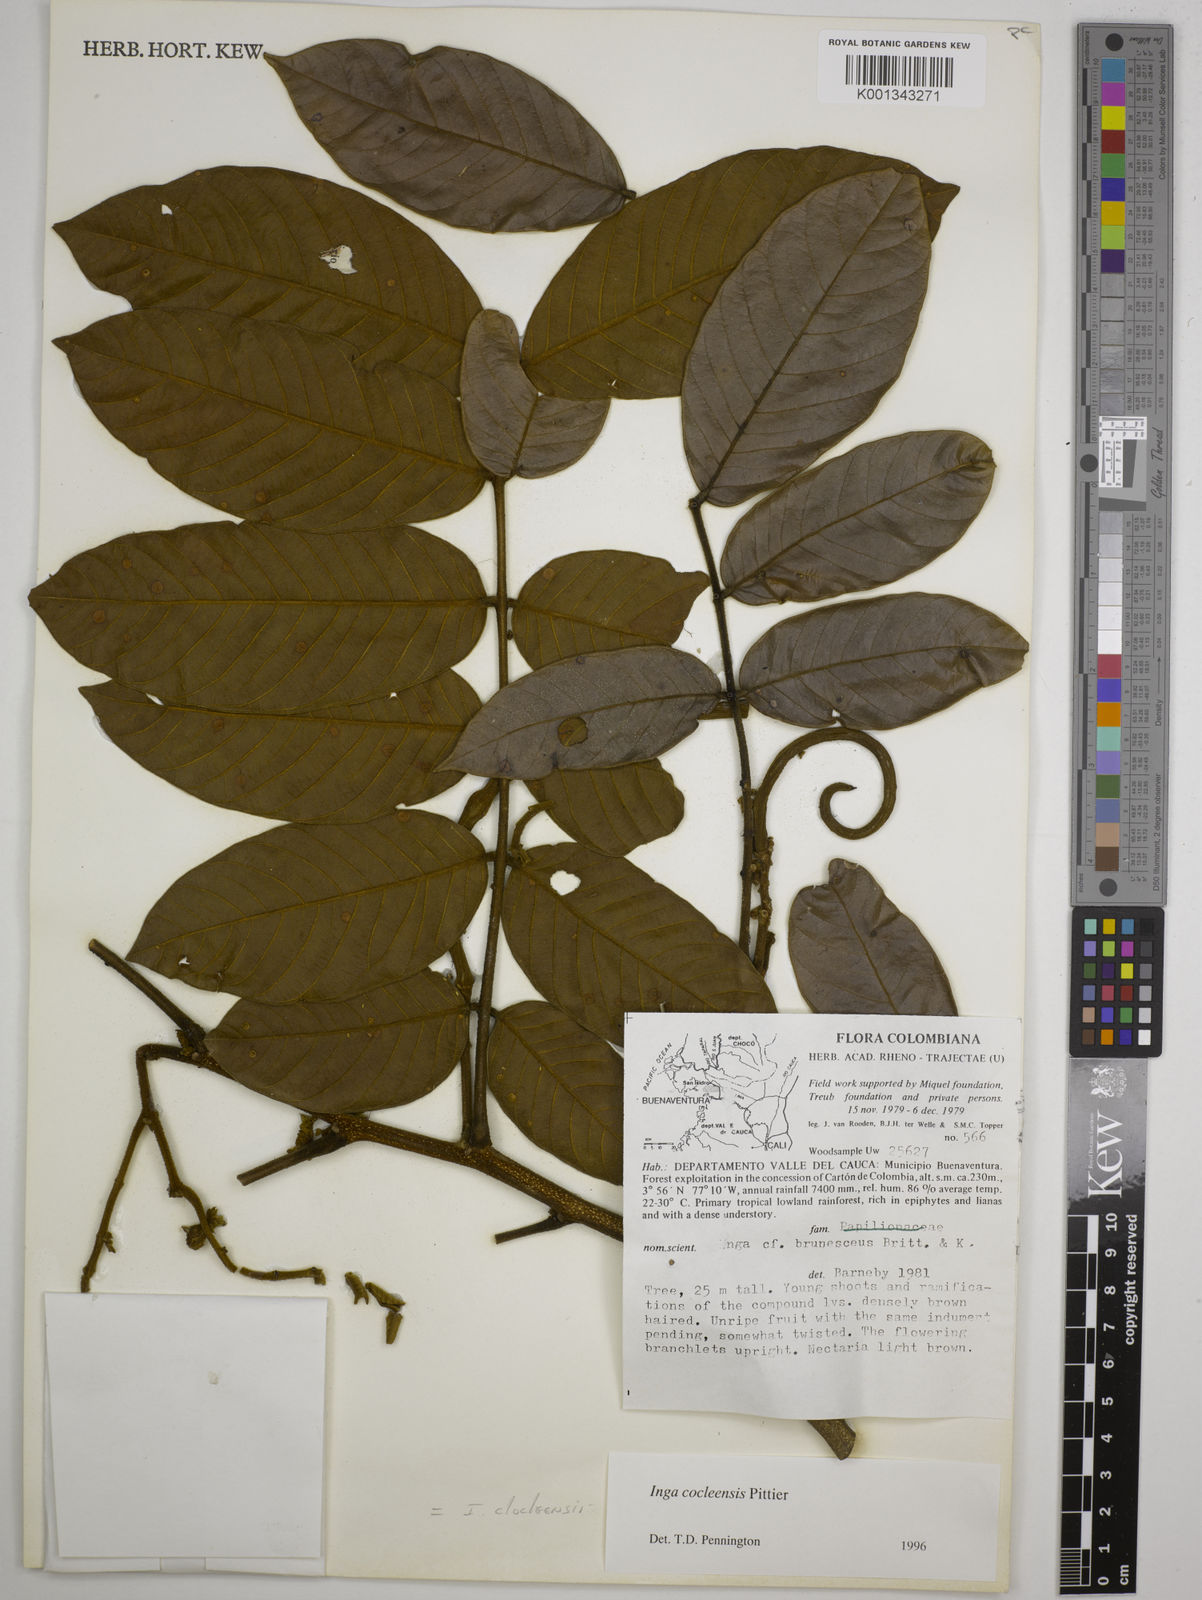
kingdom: Plantae
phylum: Tracheophyta
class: Magnoliopsida
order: Fabales
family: Fabaceae
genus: Inga
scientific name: Inga cocleensis
